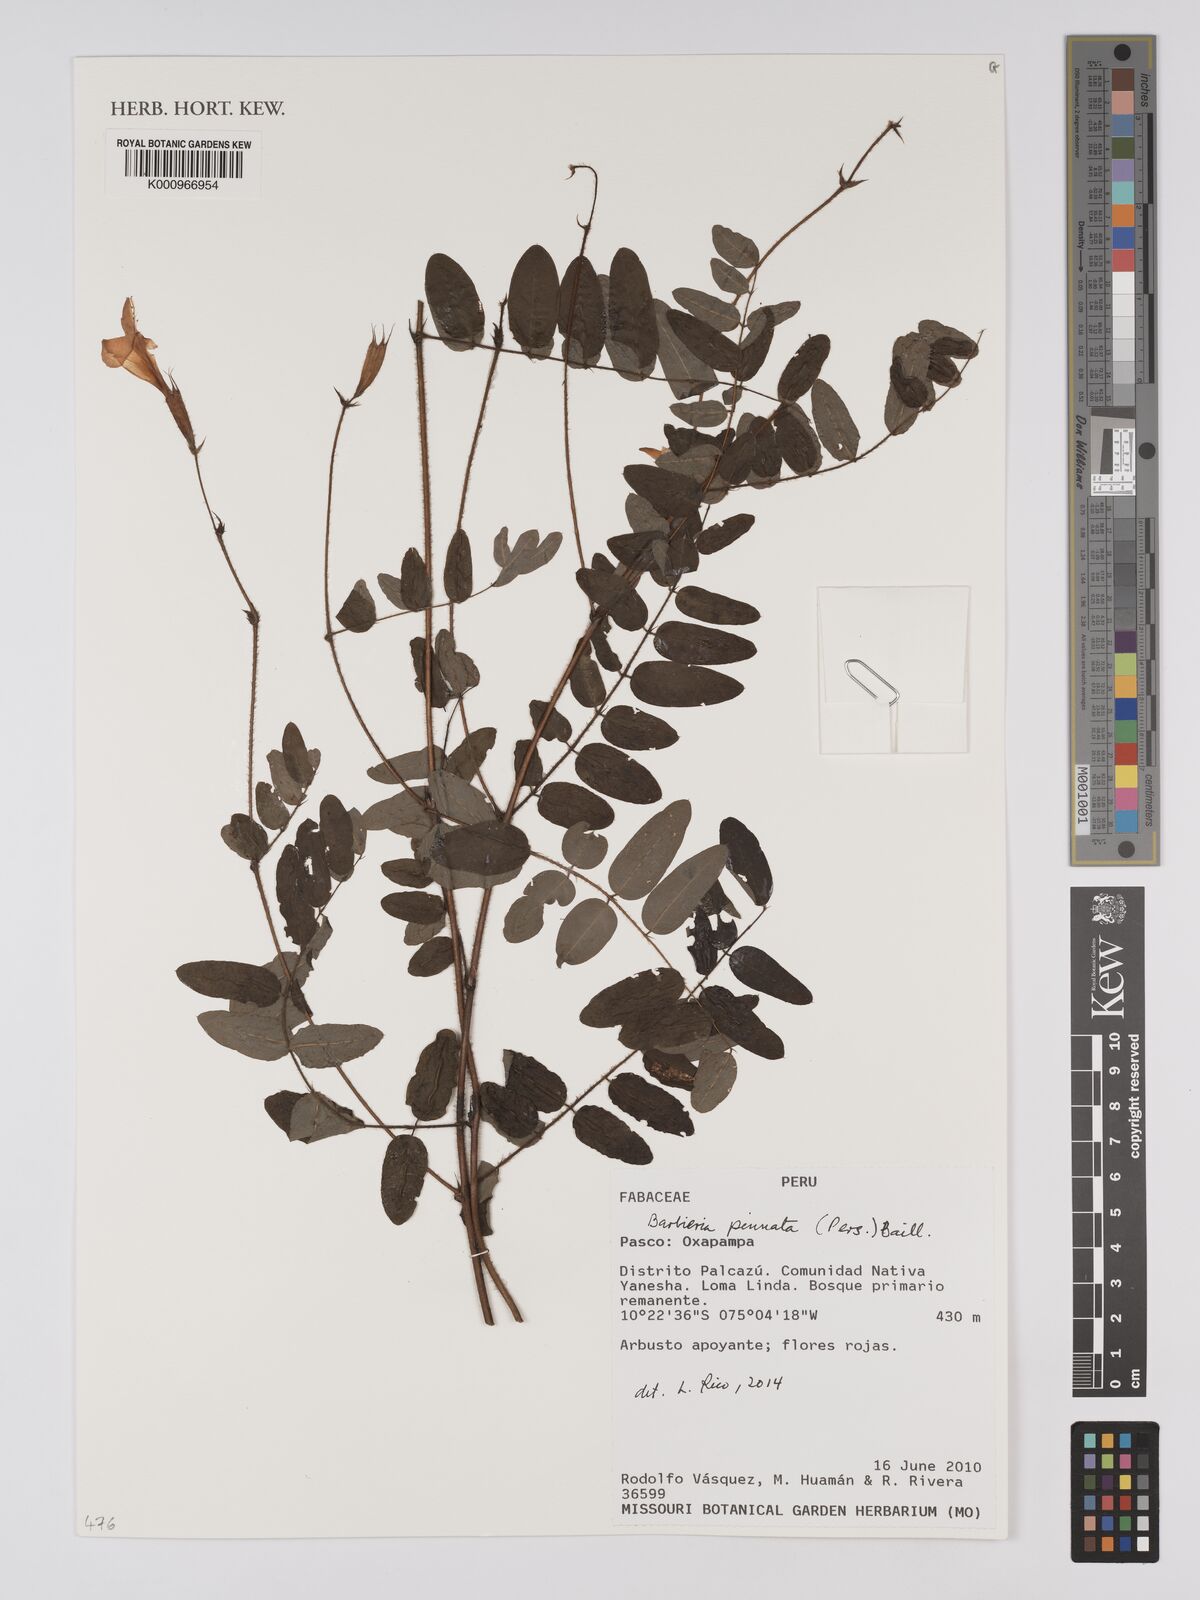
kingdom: Plantae
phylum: Tracheophyta
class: Magnoliopsida
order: Fabales
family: Fabaceae
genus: Barbieria
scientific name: Barbieria pinnata
